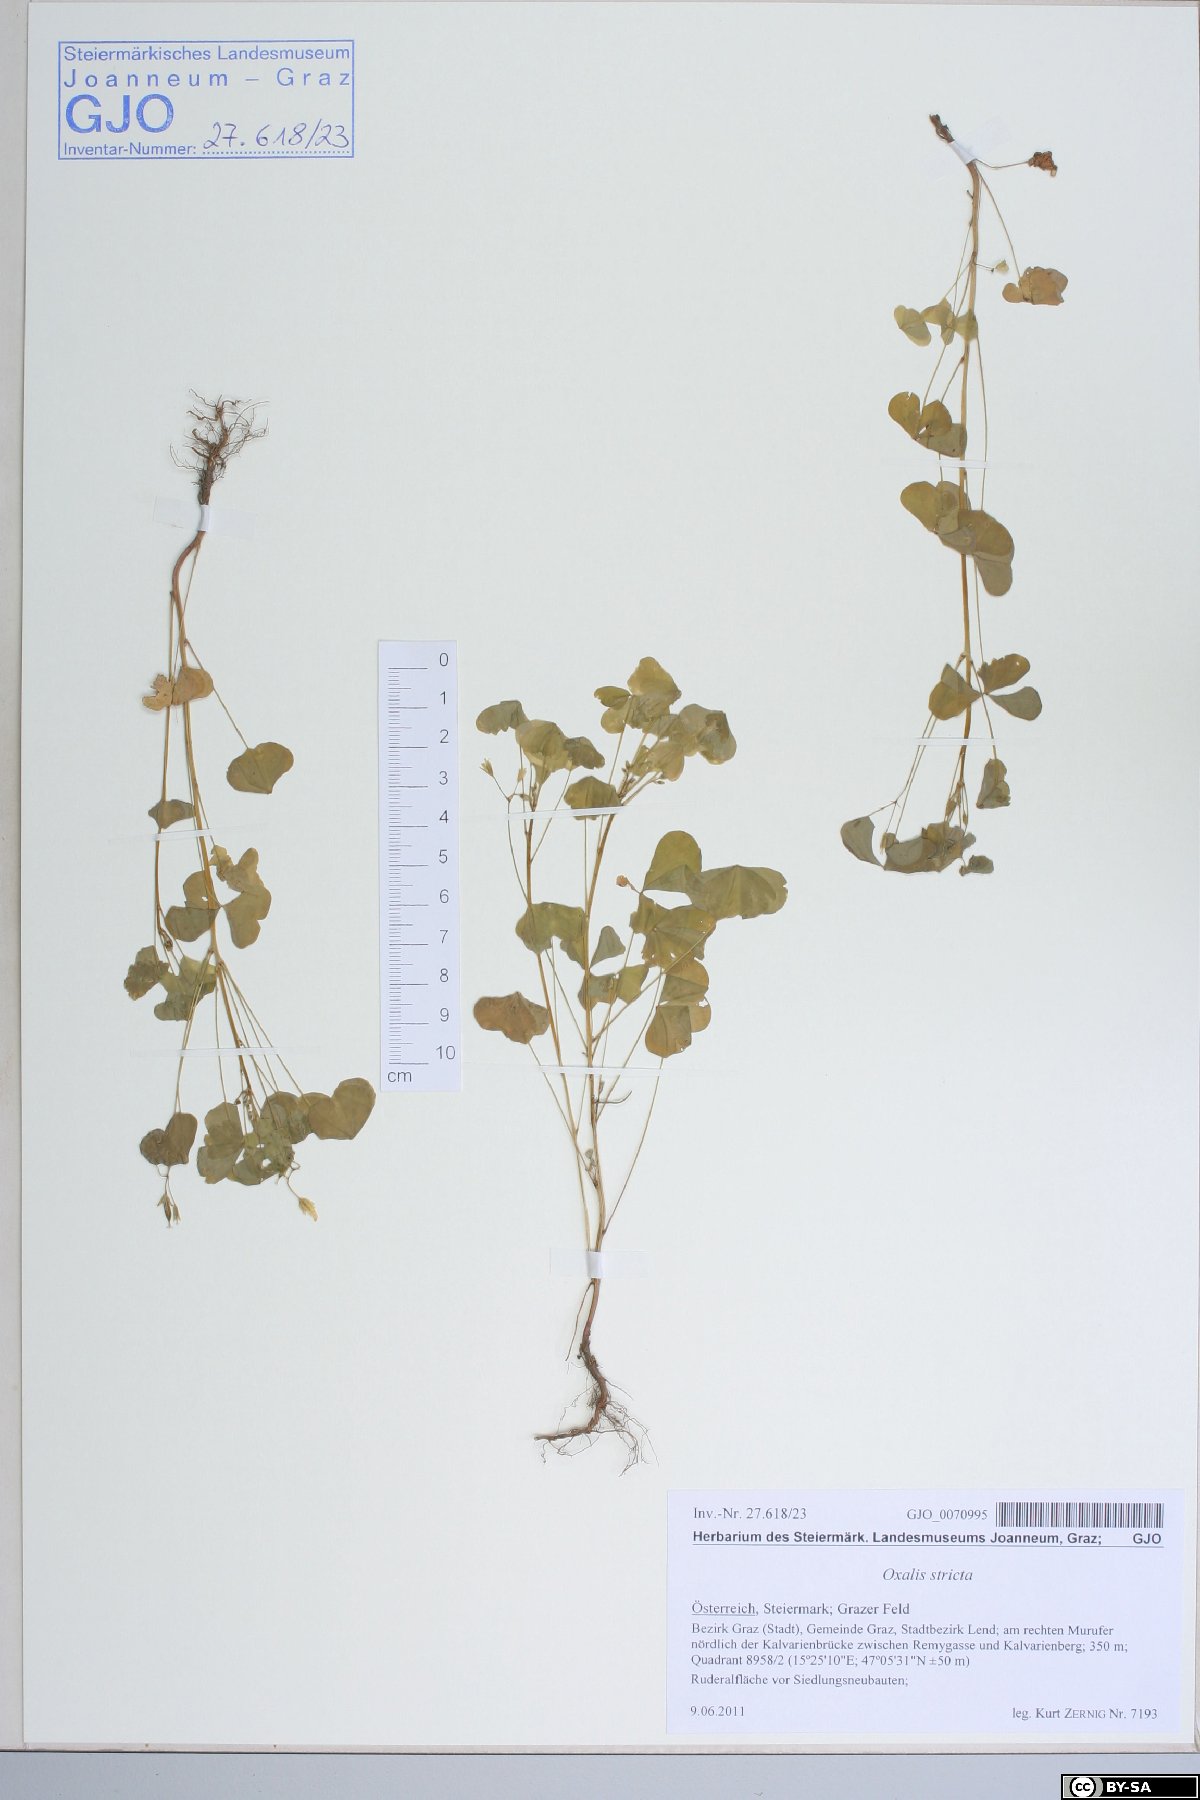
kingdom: Plantae
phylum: Tracheophyta
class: Magnoliopsida
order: Oxalidales
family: Oxalidaceae
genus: Oxalis
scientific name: Oxalis stricta
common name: Upright yellow-sorrel
